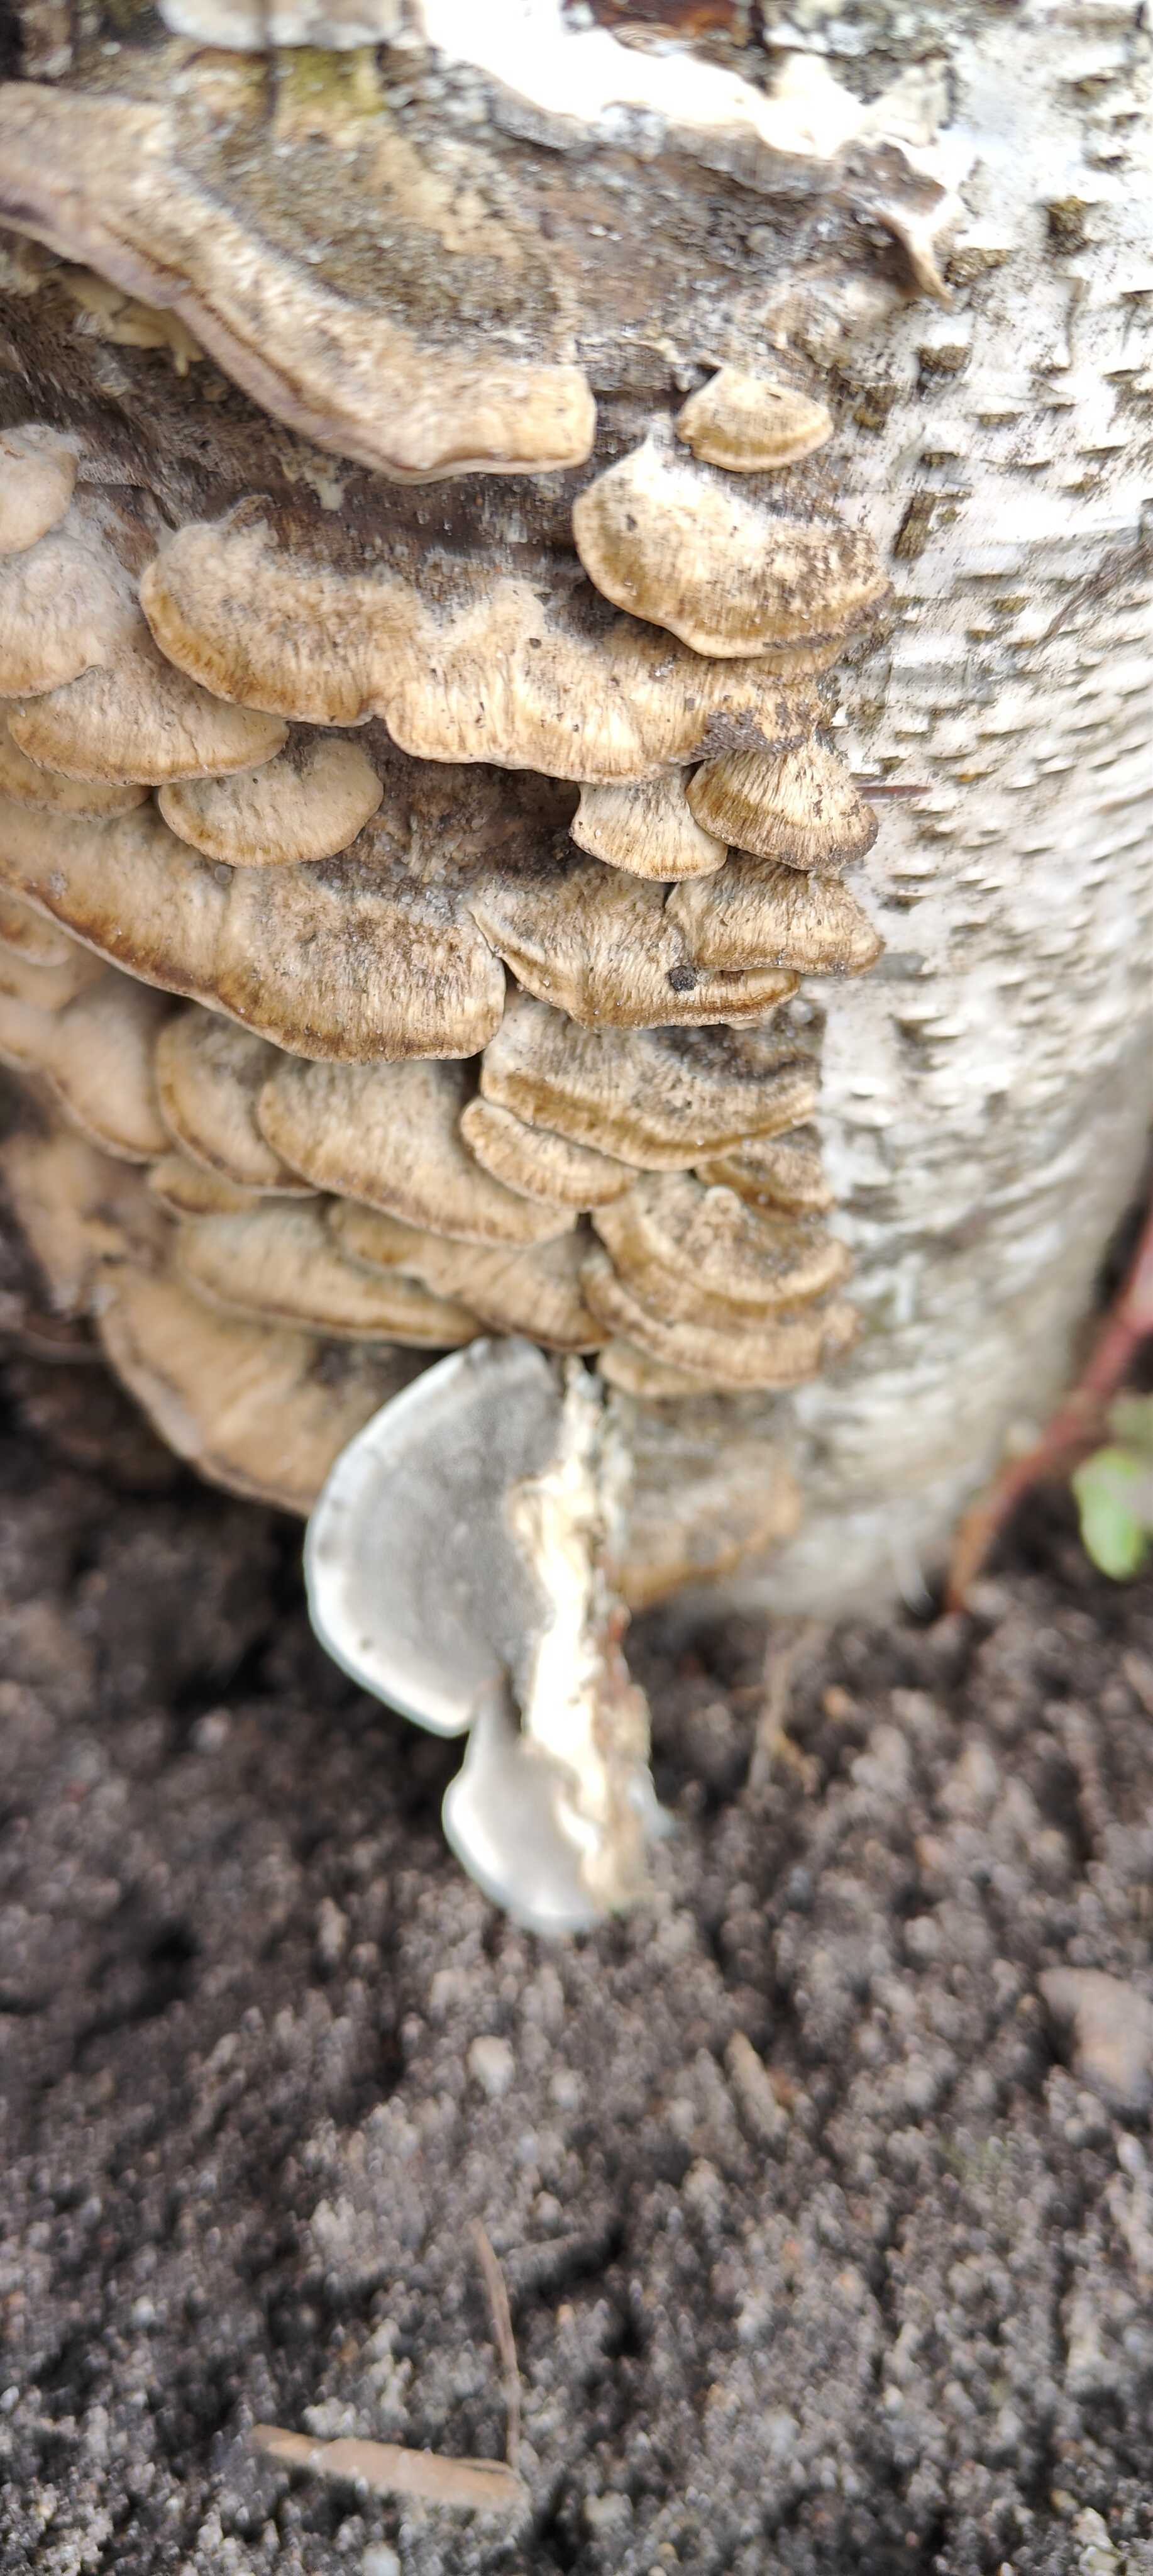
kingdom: Fungi
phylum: Basidiomycota
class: Agaricomycetes
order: Polyporales
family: Phanerochaetaceae
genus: Bjerkandera
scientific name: Bjerkandera adusta
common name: sveden sodporesvamp
